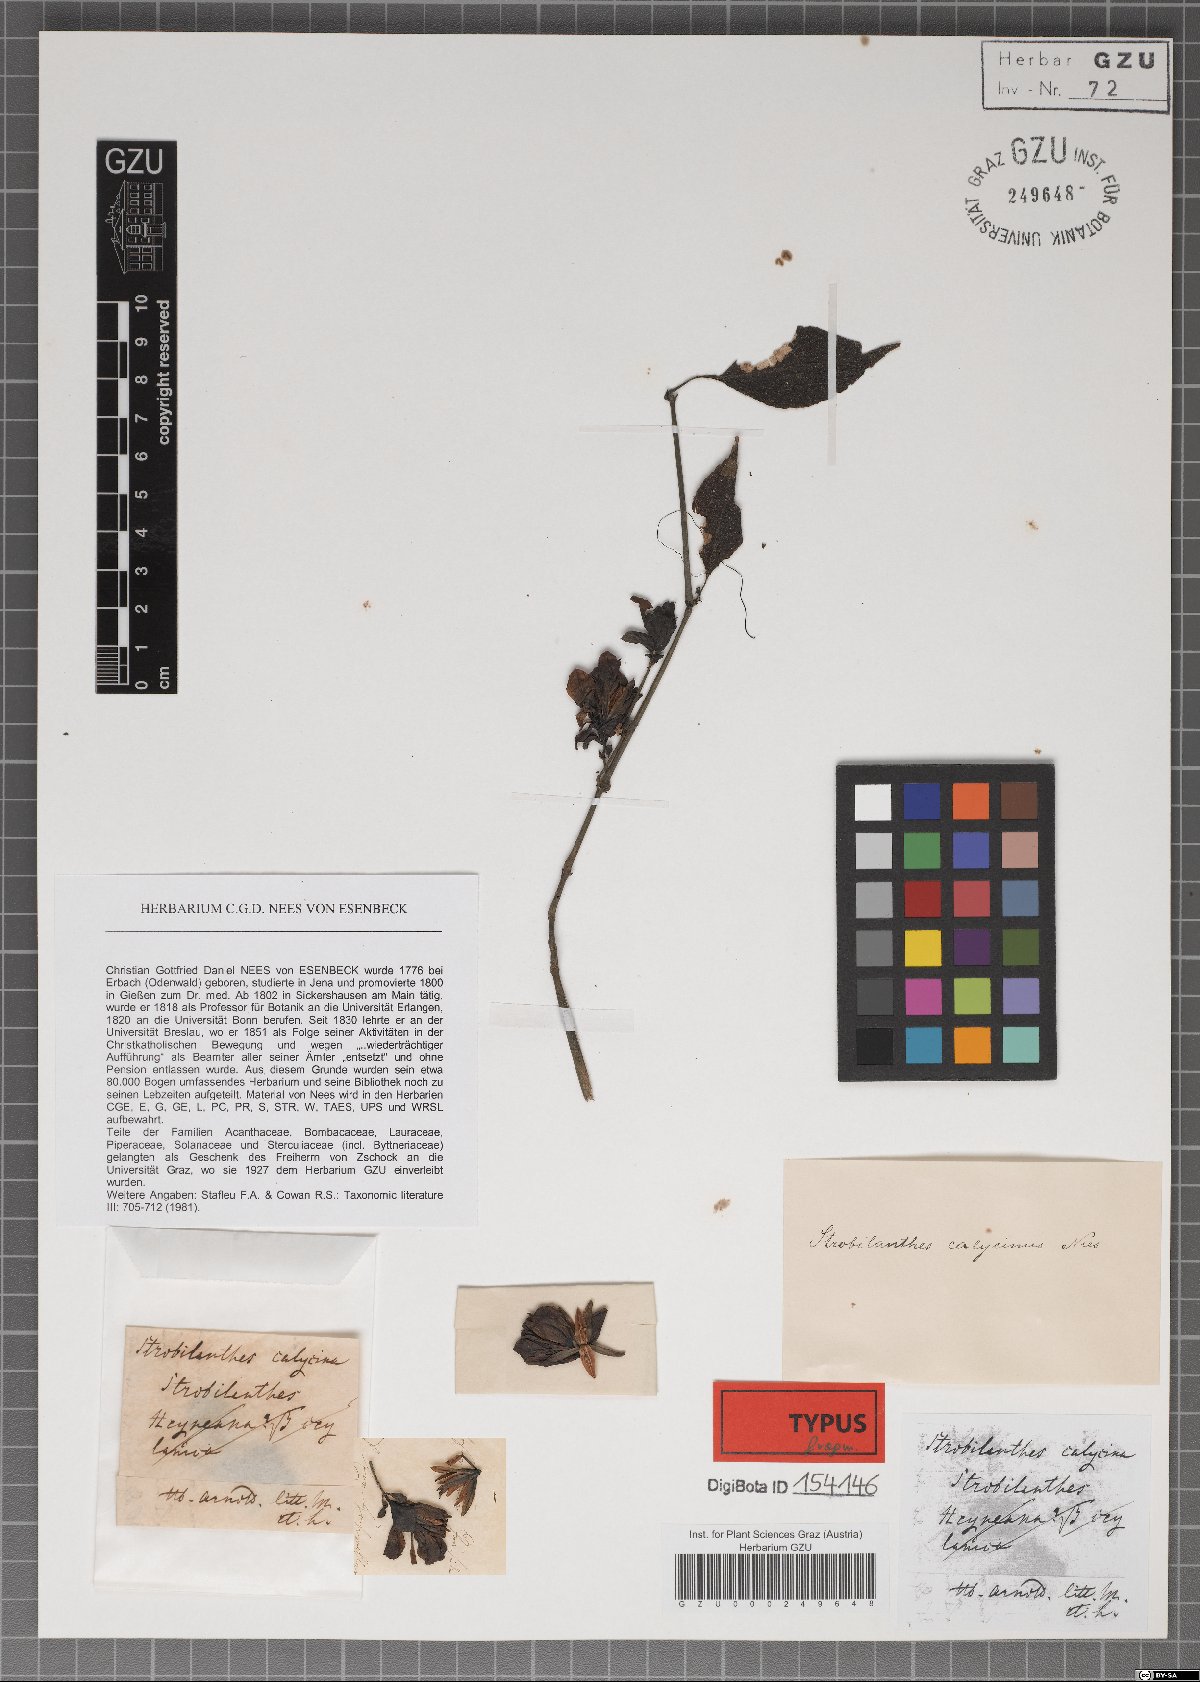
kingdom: Plantae
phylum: Tracheophyta
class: Magnoliopsida
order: Lamiales
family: Acanthaceae
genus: Strobilanthes
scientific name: Strobilanthes calycina
